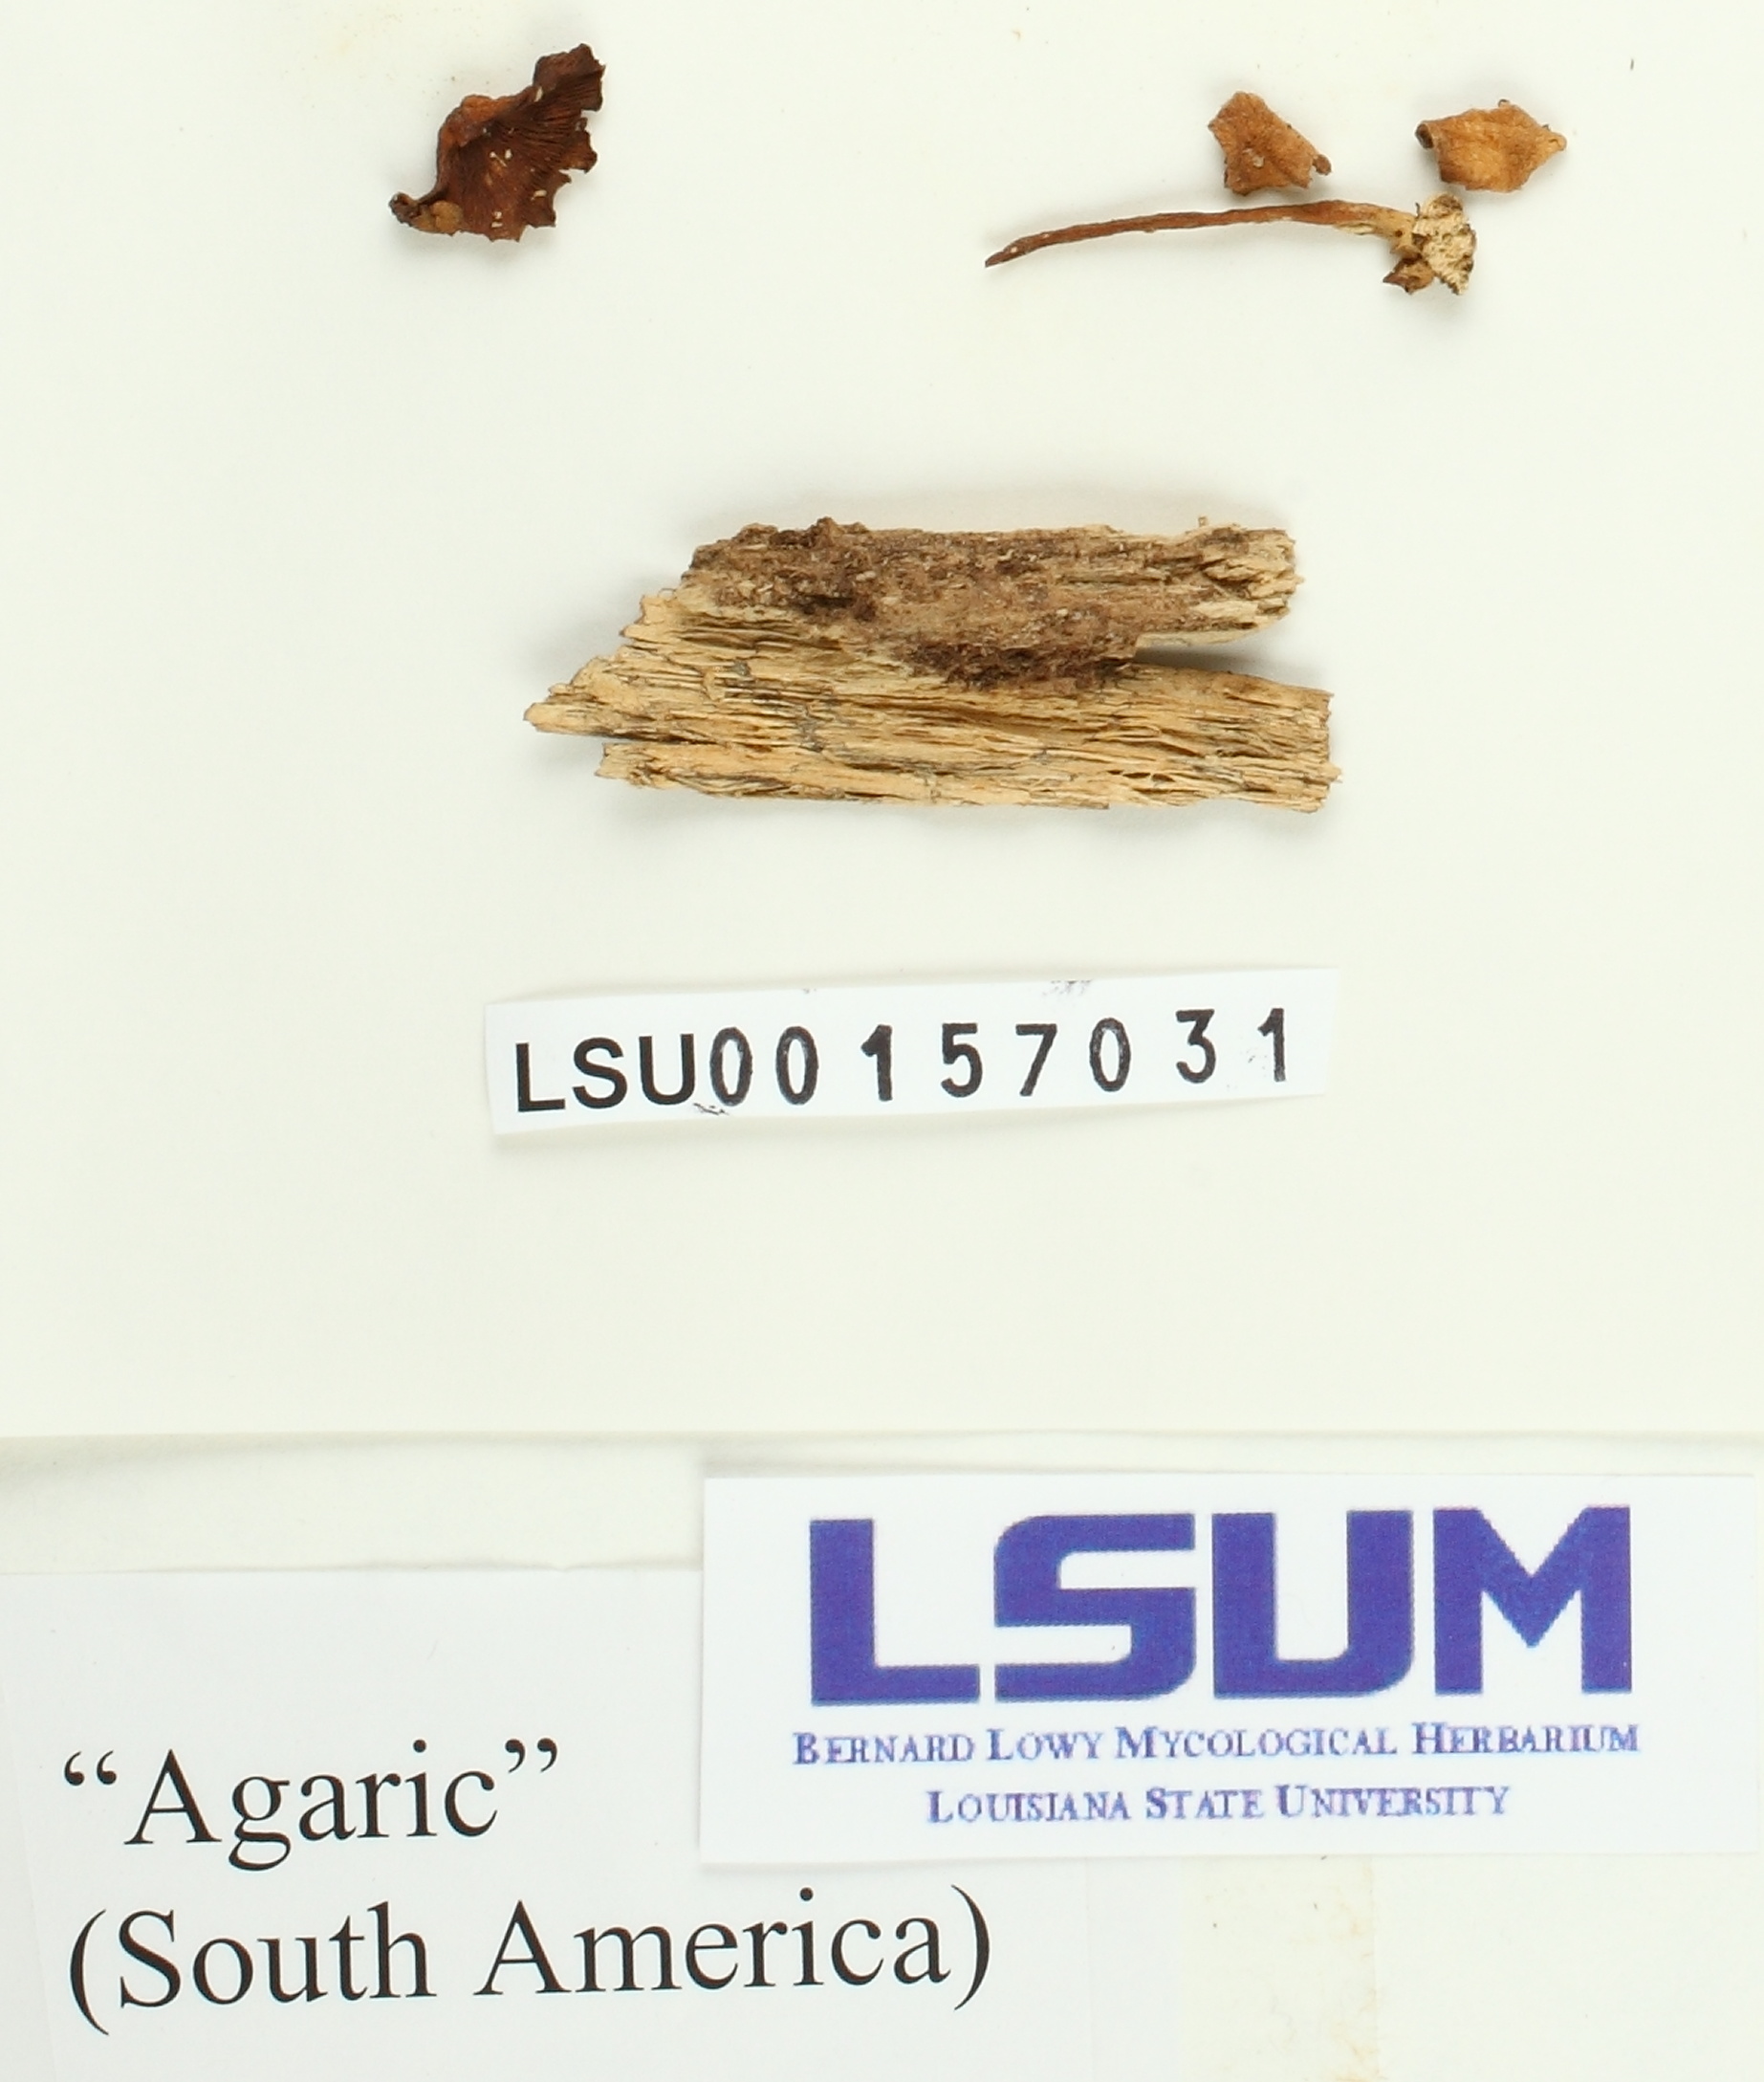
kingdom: Fungi
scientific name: Fungi
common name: Fungi
